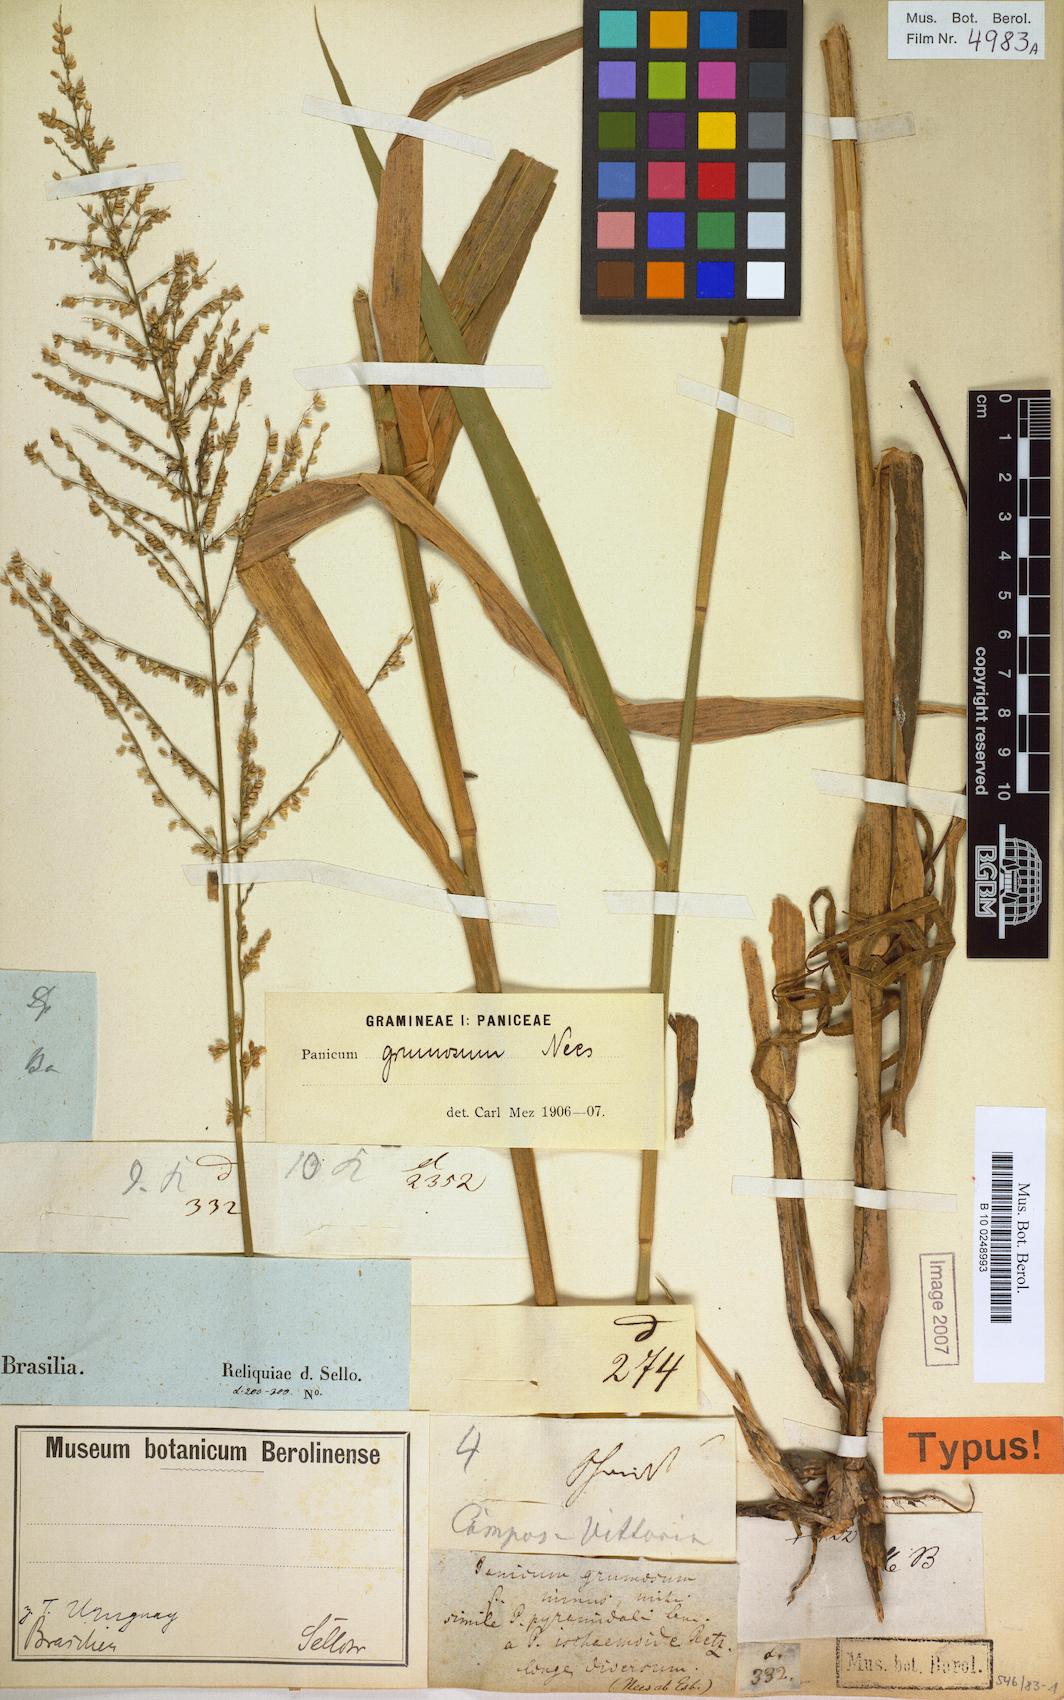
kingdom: Plantae
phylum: Tracheophyta
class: Liliopsida
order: Poales
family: Poaceae
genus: Hymenachne
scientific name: Hymenachne grumosa
